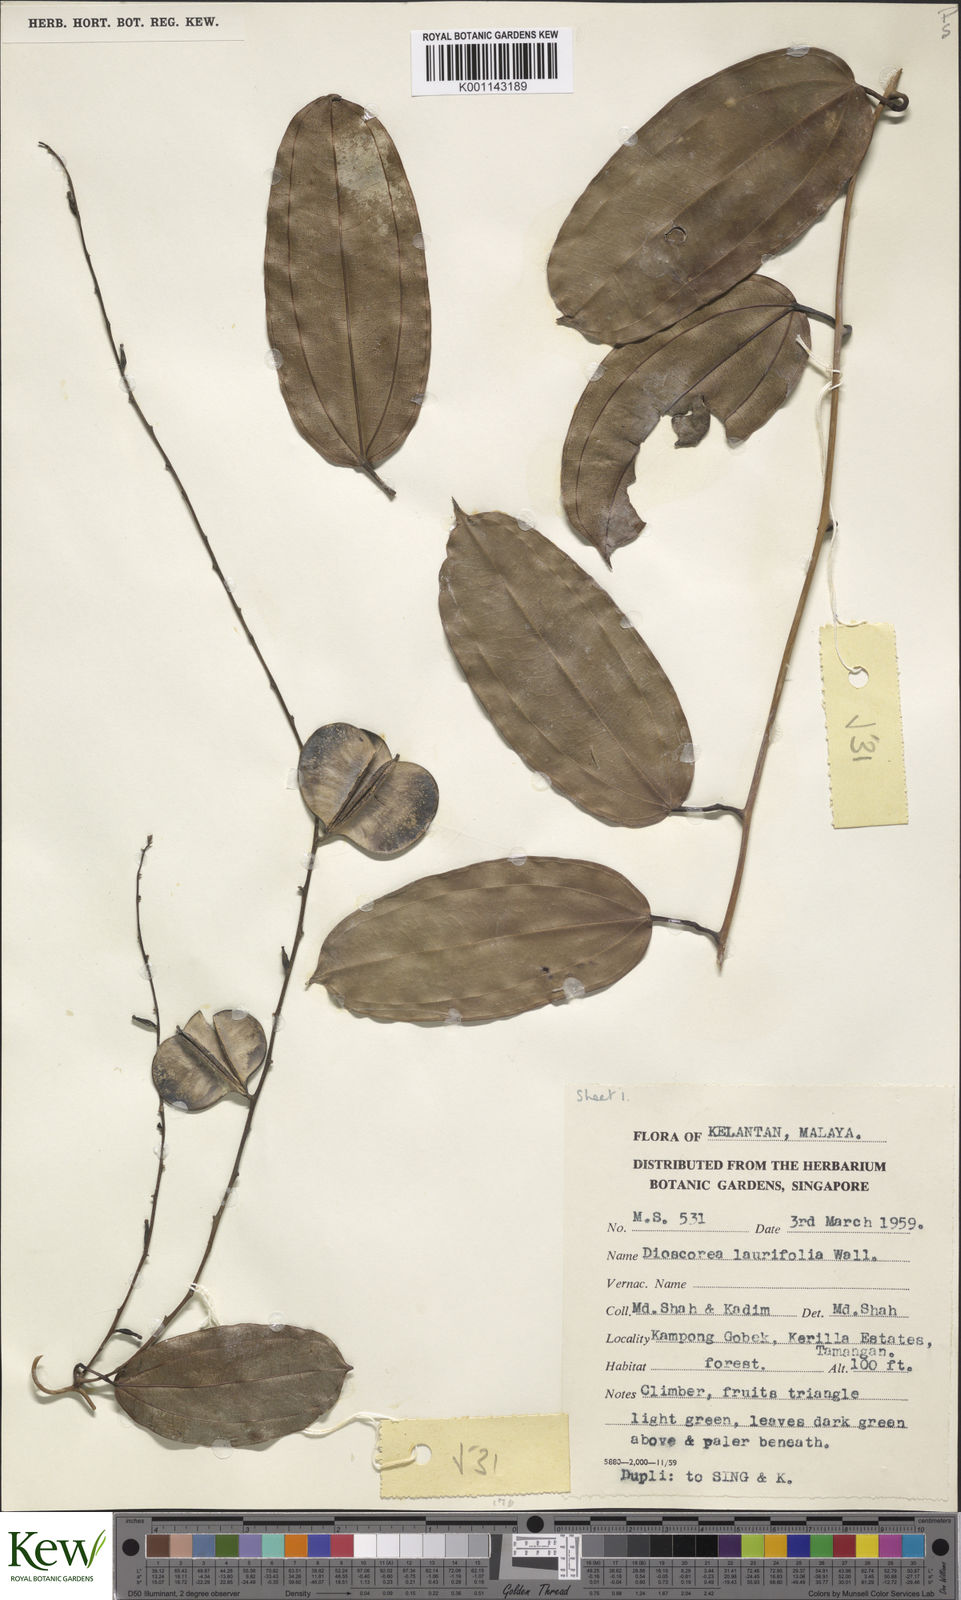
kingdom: Plantae
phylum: Tracheophyta
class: Liliopsida
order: Dioscoreales
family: Dioscoreaceae
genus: Dioscorea
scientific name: Dioscorea laurifolia
